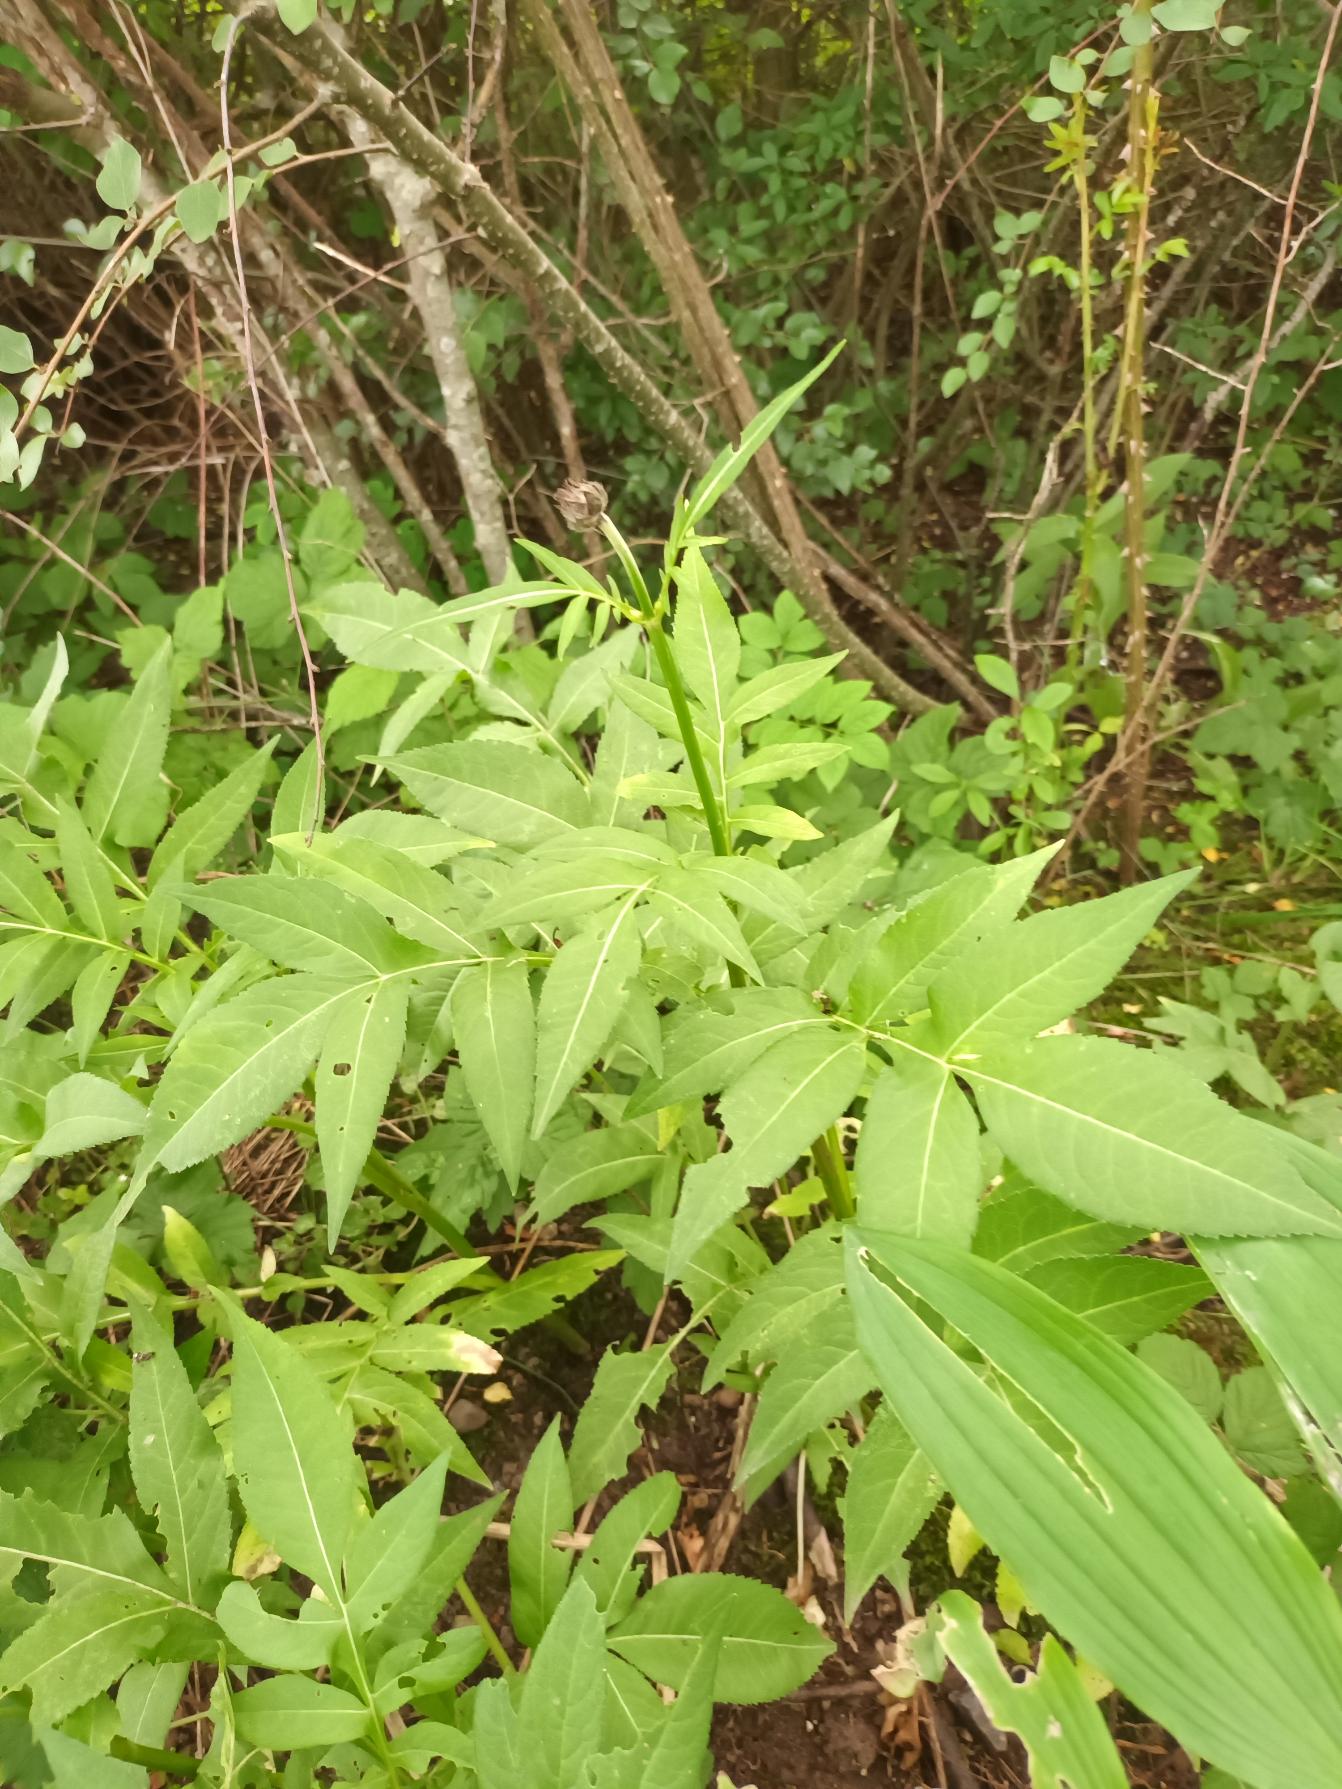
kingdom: Plantae
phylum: Tracheophyta
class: Magnoliopsida
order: Dipsacales
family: Caprifoliaceae
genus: Cephalaria
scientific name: Cephalaria gigantea
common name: Stor skælhoved
